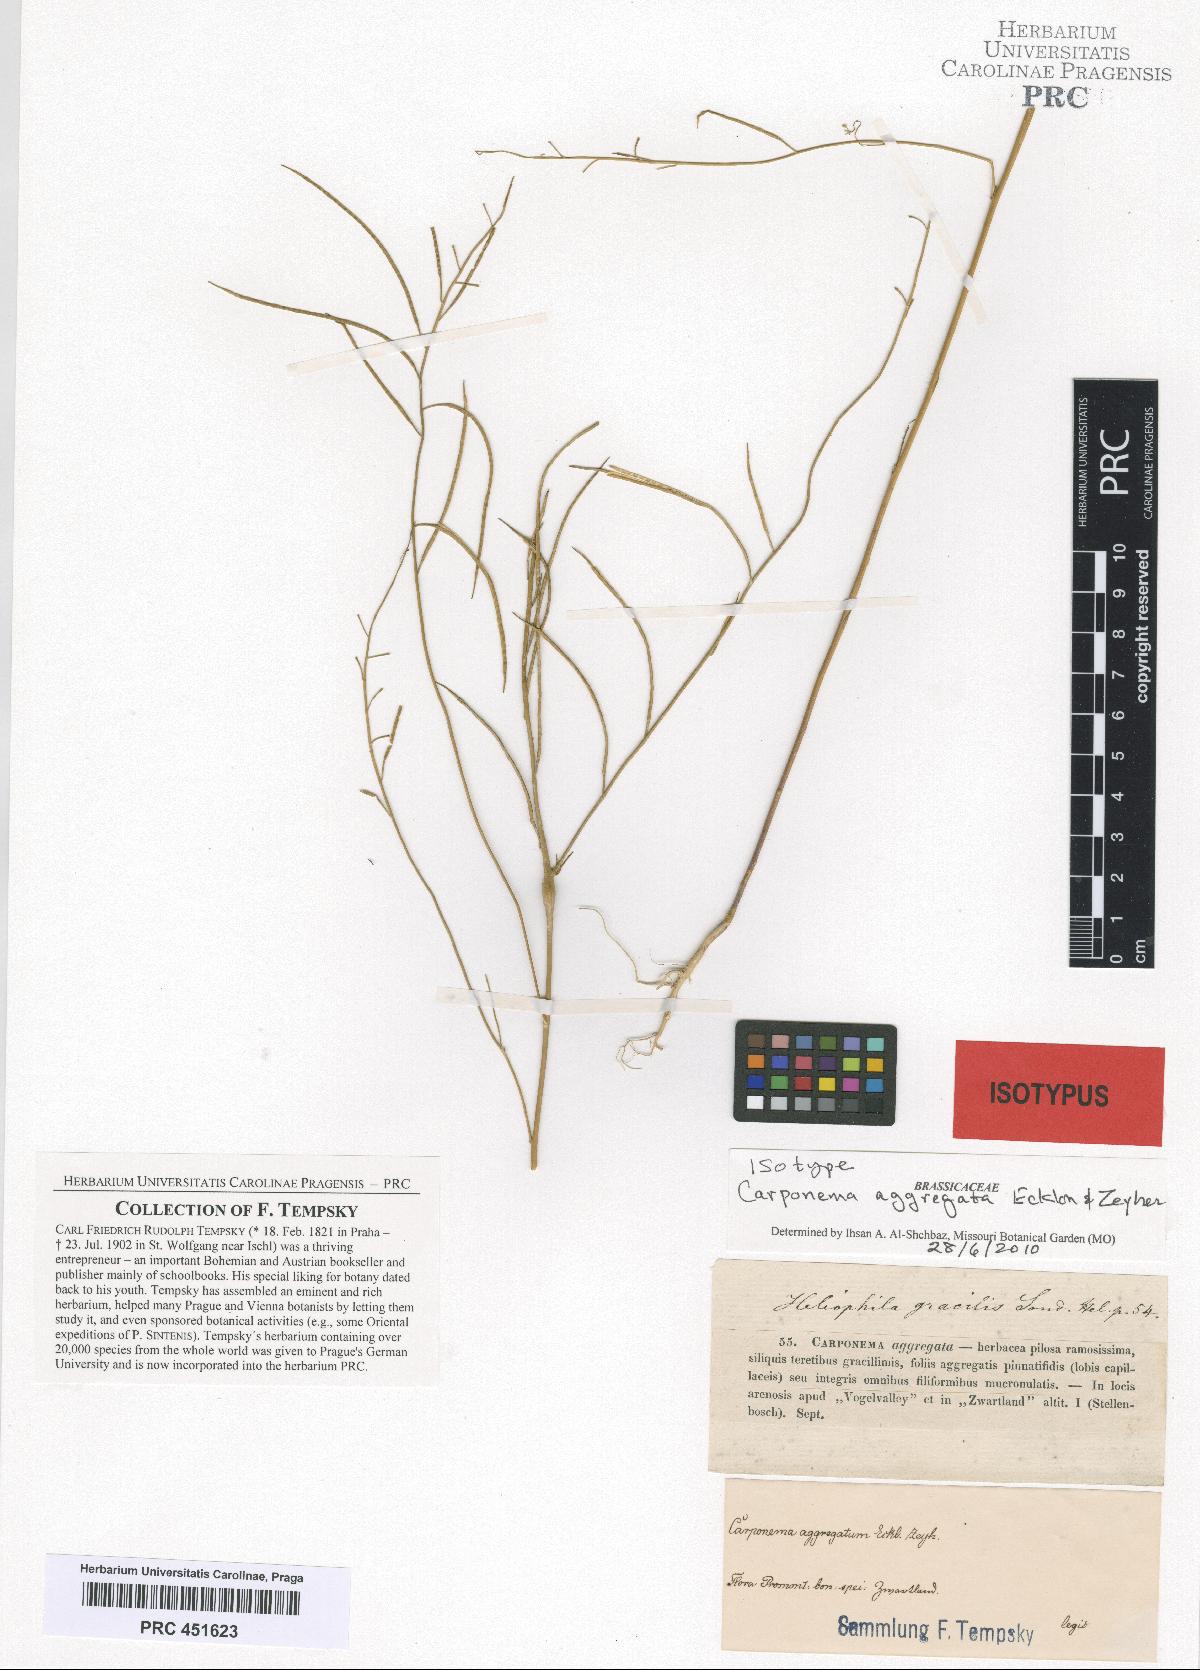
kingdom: Plantae
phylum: Tracheophyta
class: Magnoliopsida
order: Brassicales
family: Brassicaceae
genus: Heliophila
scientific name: Heliophila digitata
